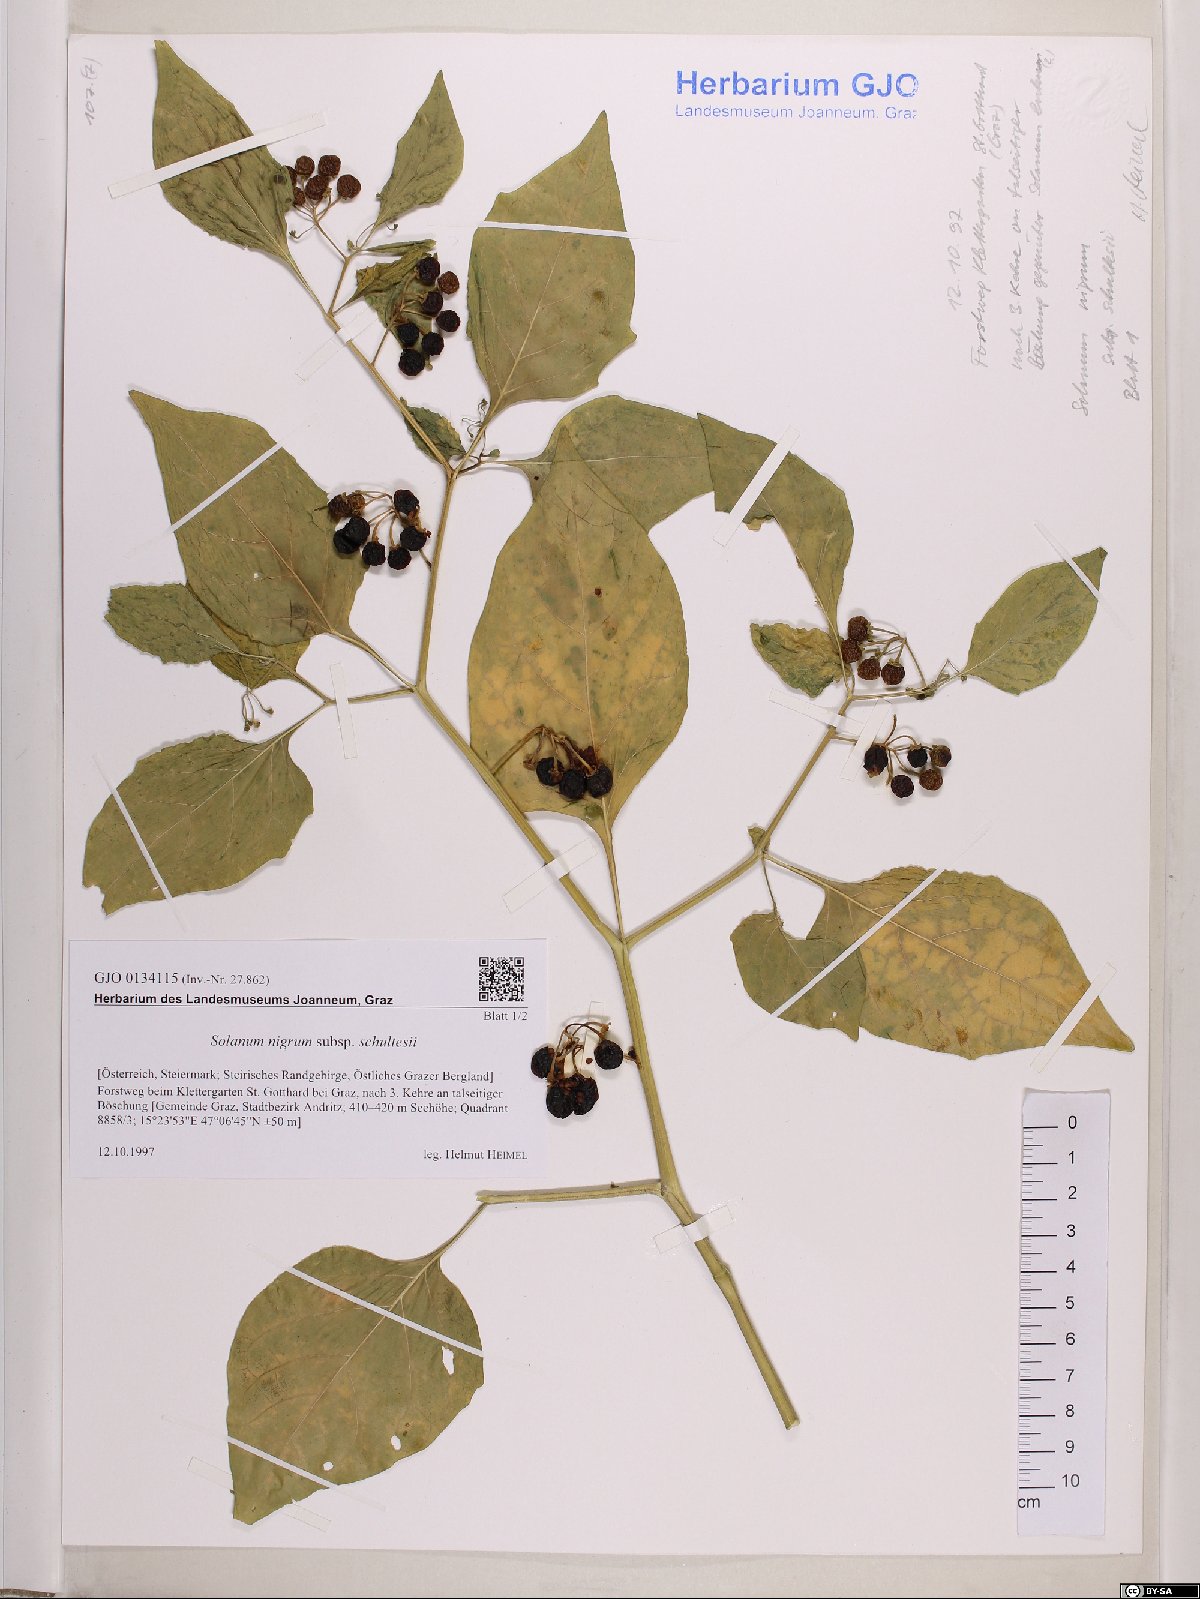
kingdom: Plantae
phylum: Tracheophyta
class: Magnoliopsida
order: Solanales
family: Solanaceae
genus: Solanum
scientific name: Solanum decipiens
